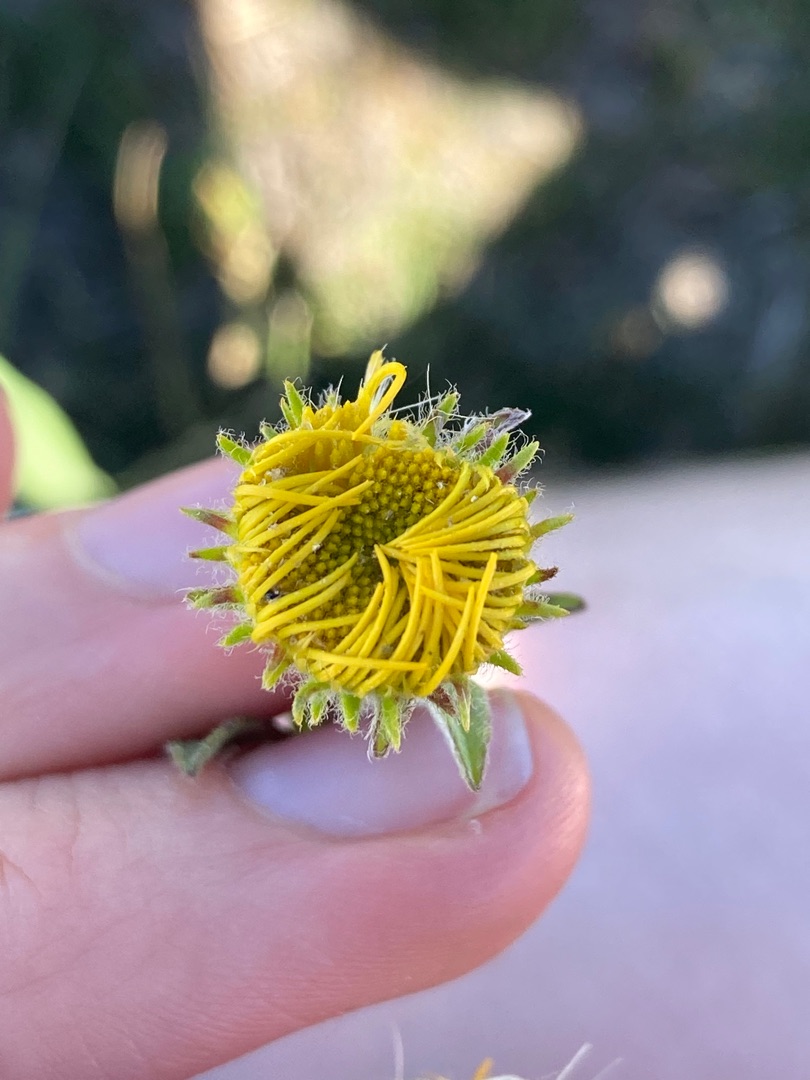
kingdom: Plantae
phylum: Tracheophyta
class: Magnoliopsida
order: Asterales
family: Asteraceae
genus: Pentanema
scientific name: Pentanema britannicum
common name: Soløje-alant
